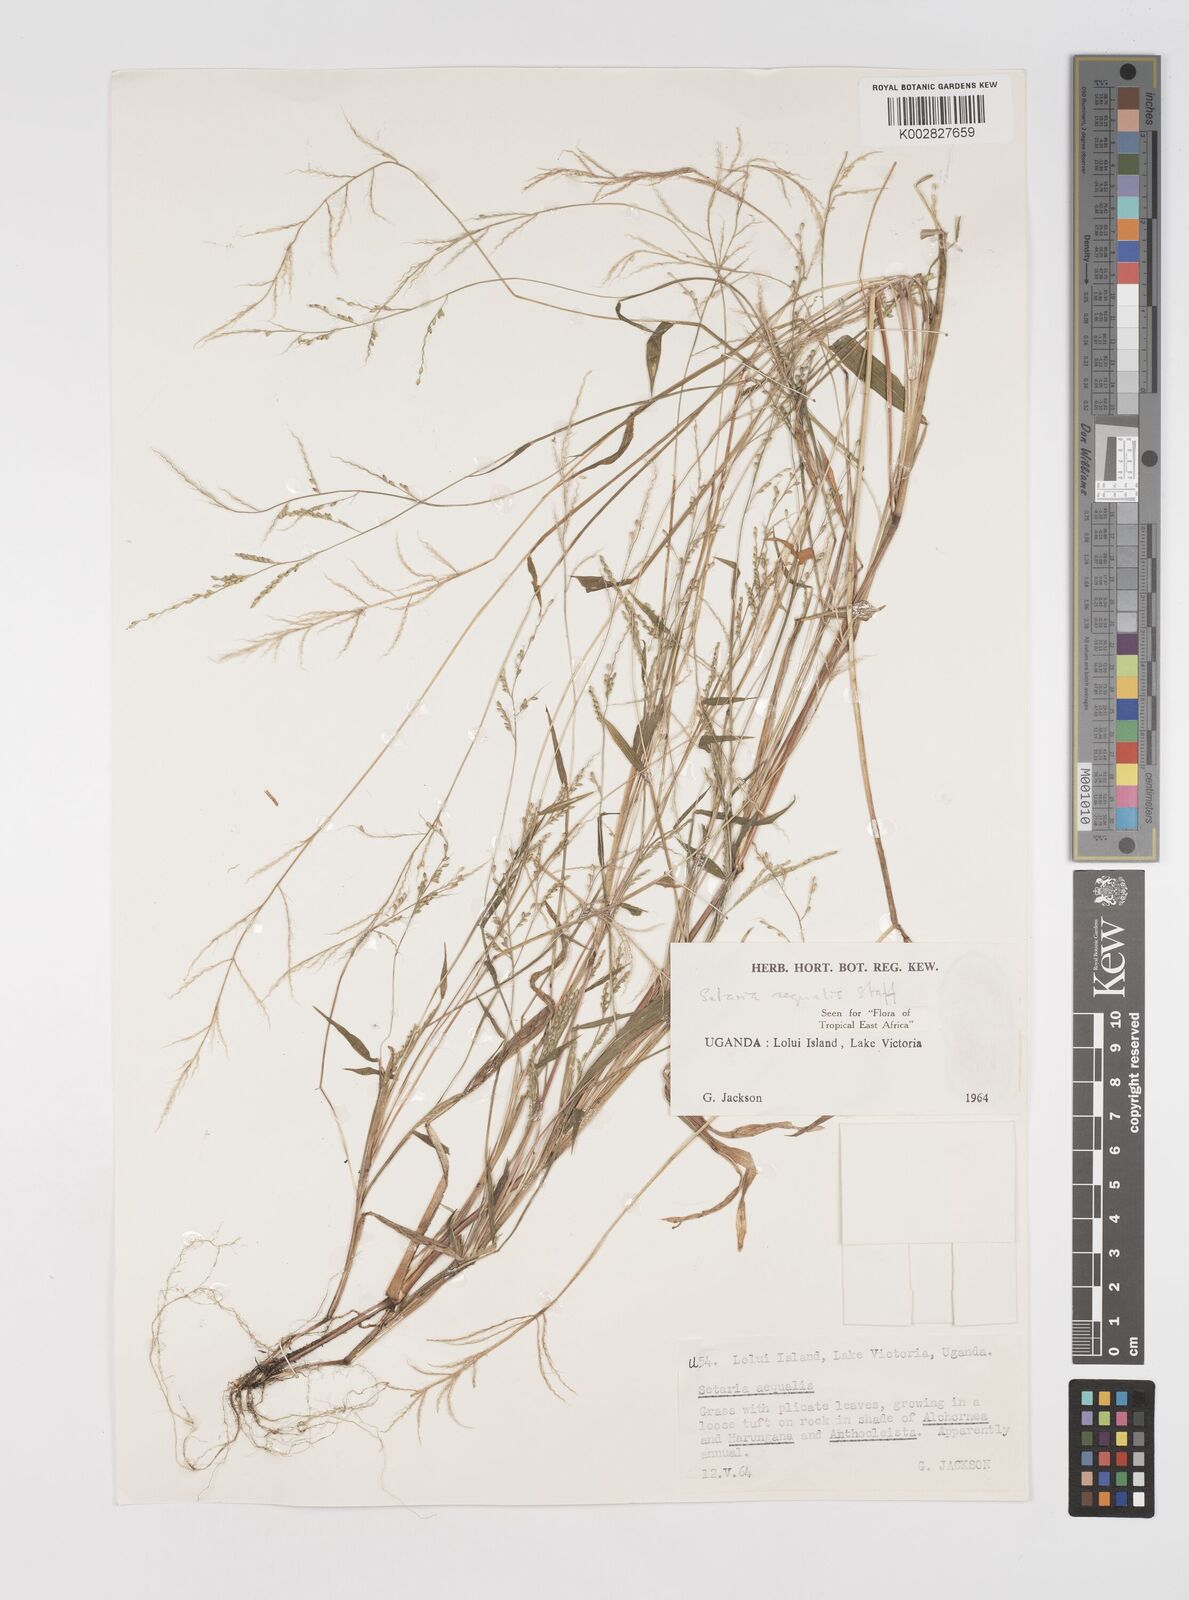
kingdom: Plantae
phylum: Tracheophyta
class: Liliopsida
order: Poales
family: Poaceae
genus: Setaria
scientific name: Setaria homonyma
